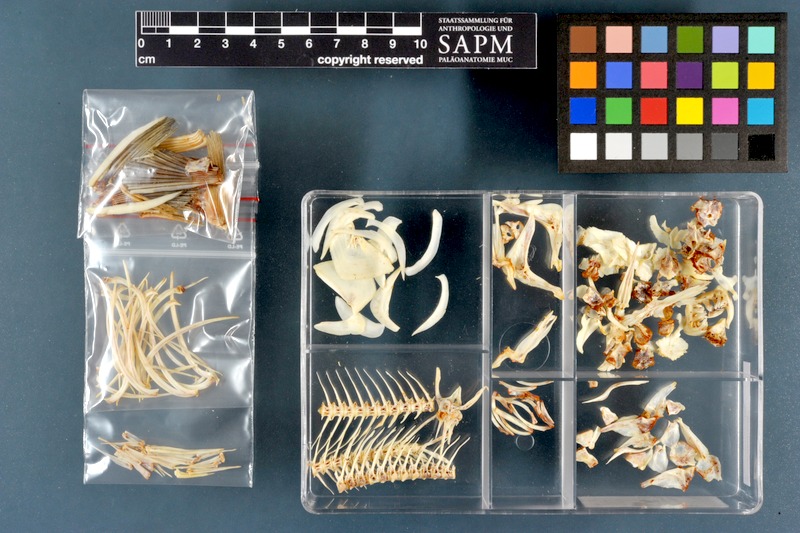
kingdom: Animalia
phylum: Chordata
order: Cypriniformes
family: Cyprinidae
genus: Carasobarbus
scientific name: Carasobarbus luteus
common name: Mesopotamian himri
